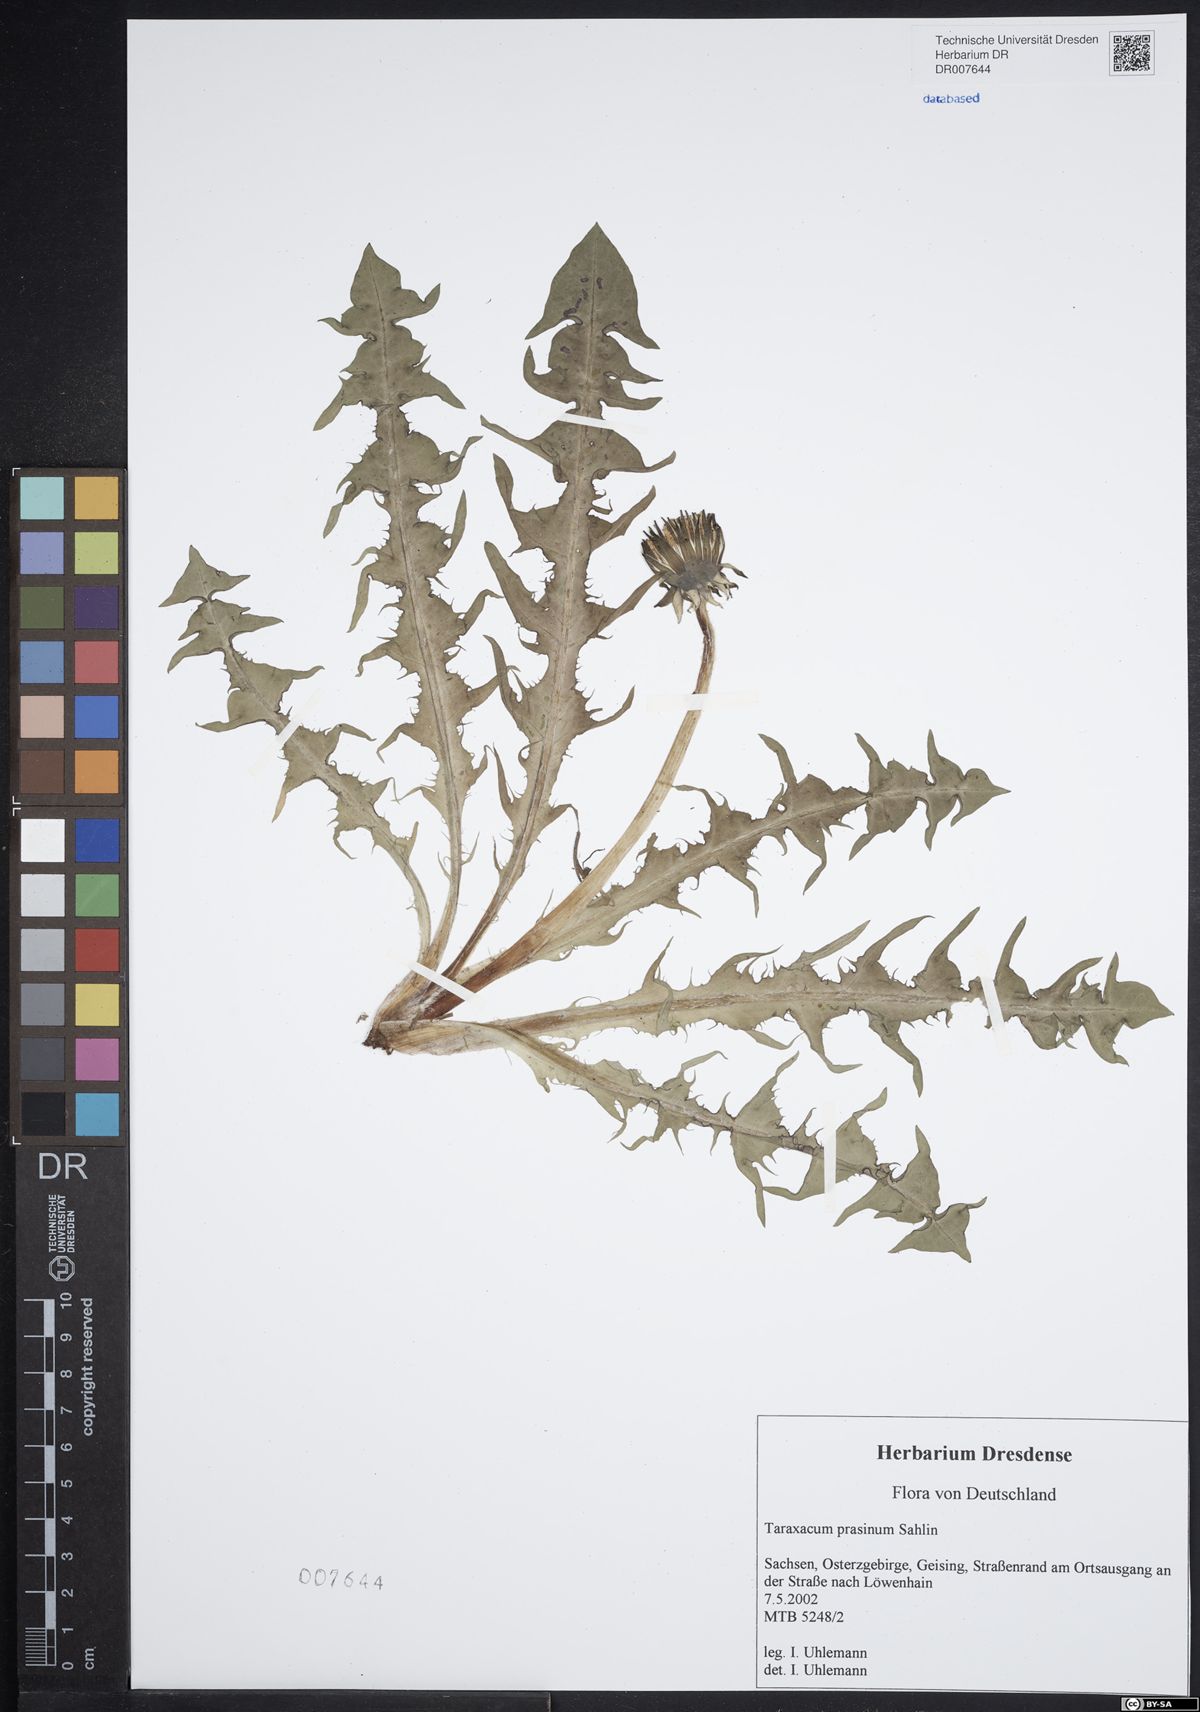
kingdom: Plantae
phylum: Tracheophyta
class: Magnoliopsida
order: Asterales
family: Asteraceae
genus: Taraxacum
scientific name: Taraxacum prasinum
